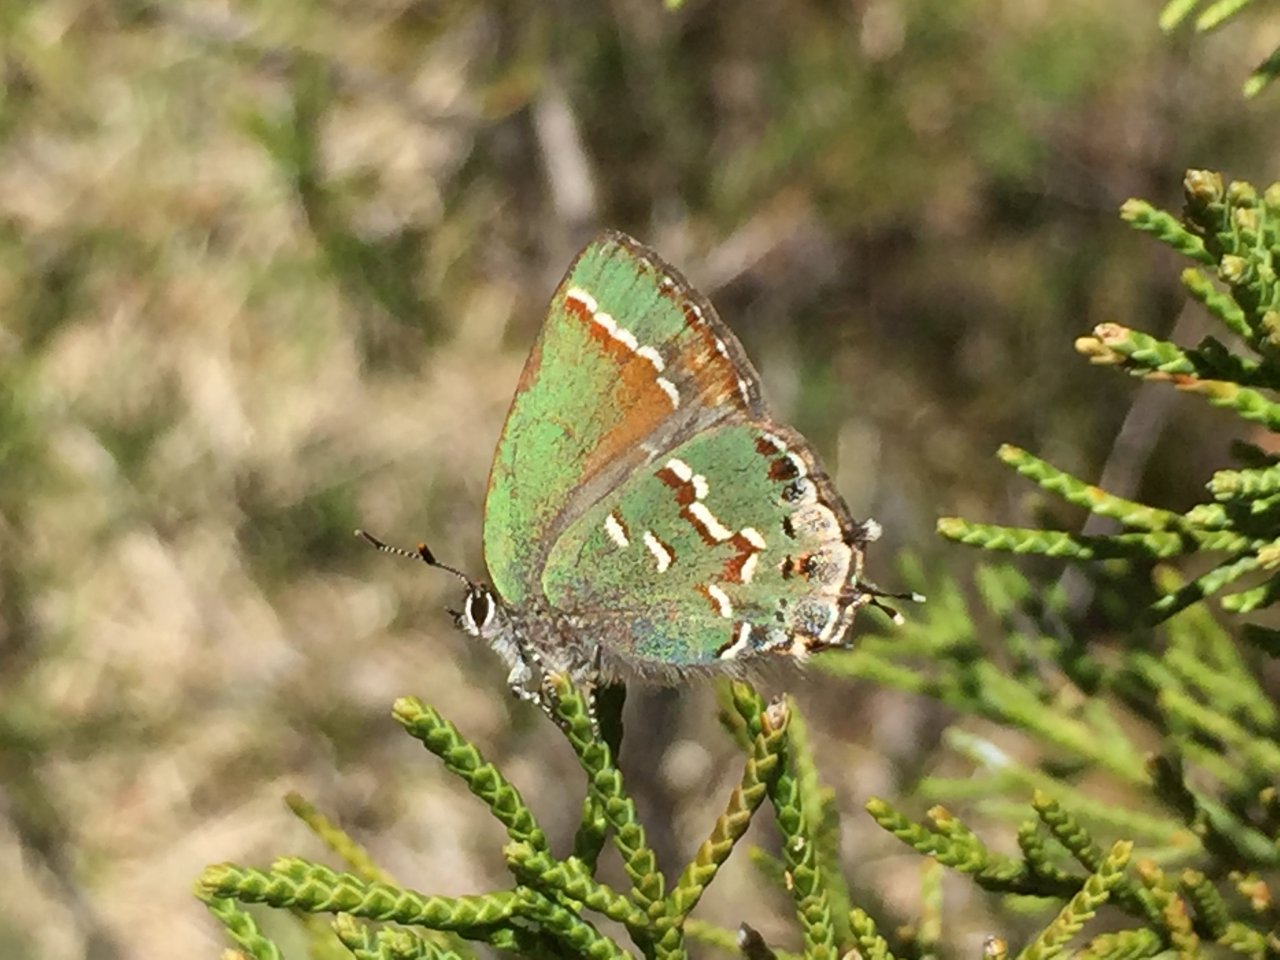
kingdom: Animalia
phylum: Arthropoda
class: Insecta
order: Lepidoptera
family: Lycaenidae
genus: Mitoura
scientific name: Mitoura gryneus
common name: Juniper Hairstreak
